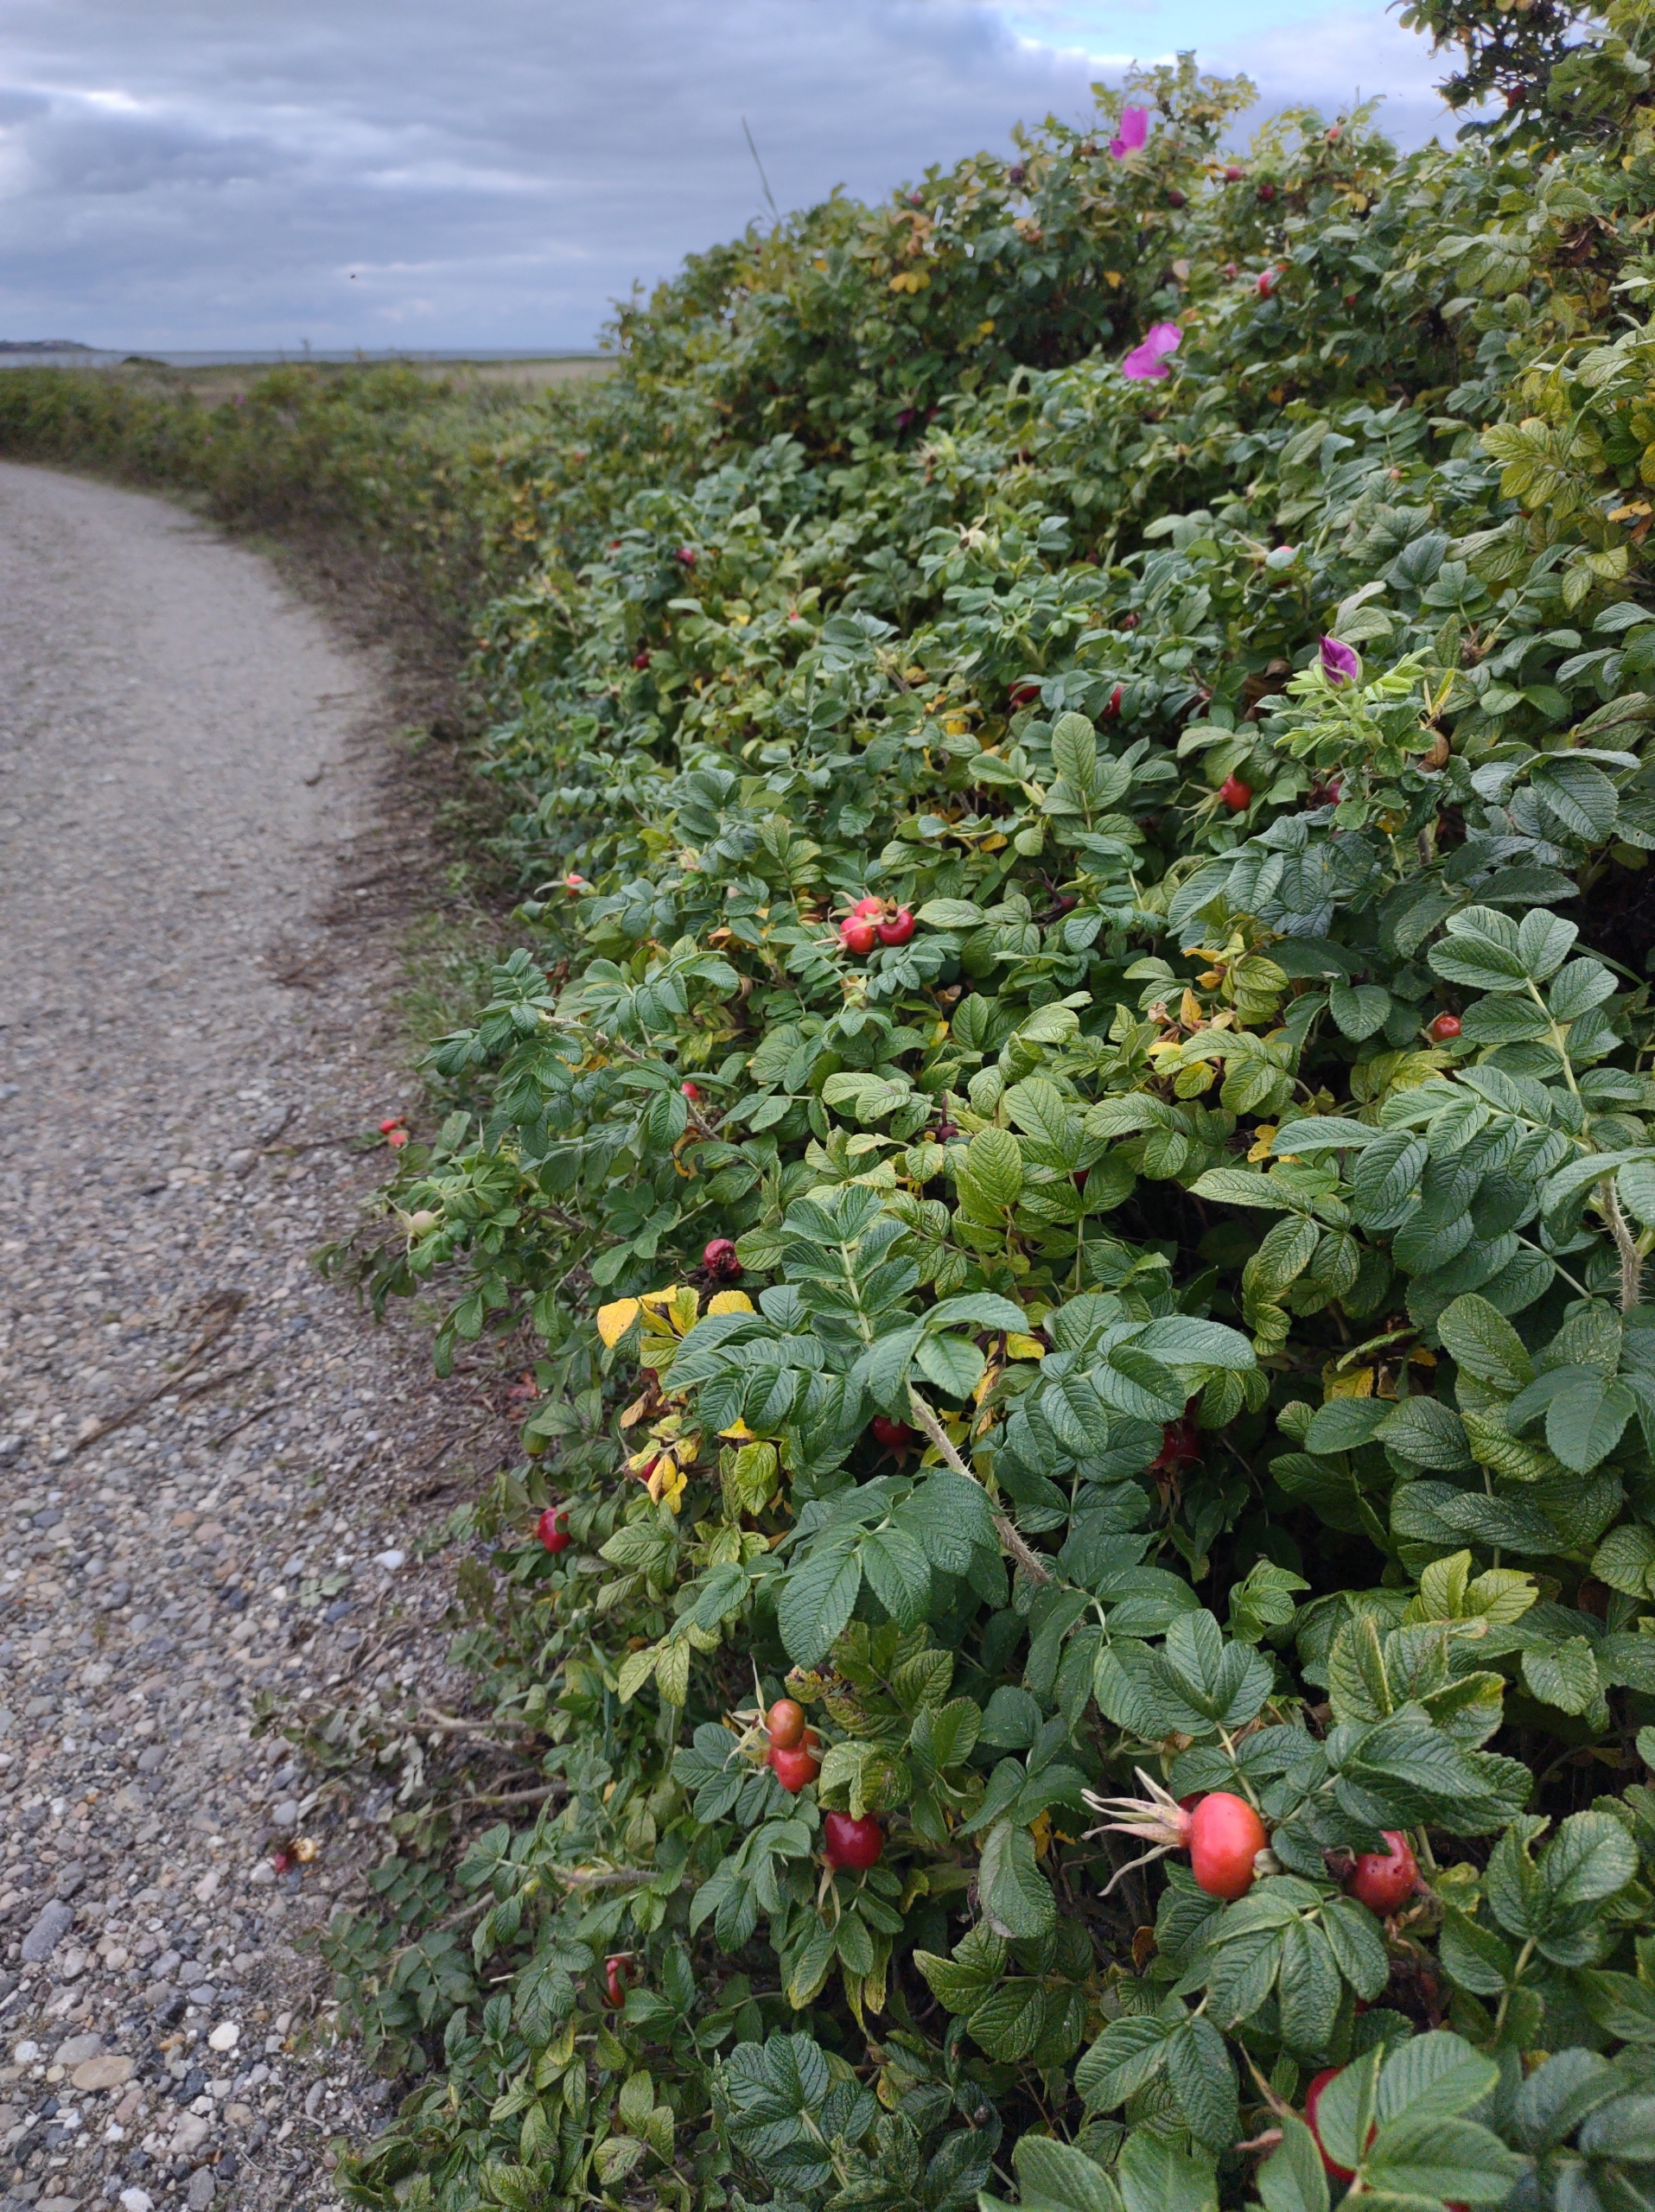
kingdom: Plantae
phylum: Tracheophyta
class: Magnoliopsida
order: Rosales
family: Rosaceae
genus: Rosa
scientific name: Rosa rugosa
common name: Rynket rose
